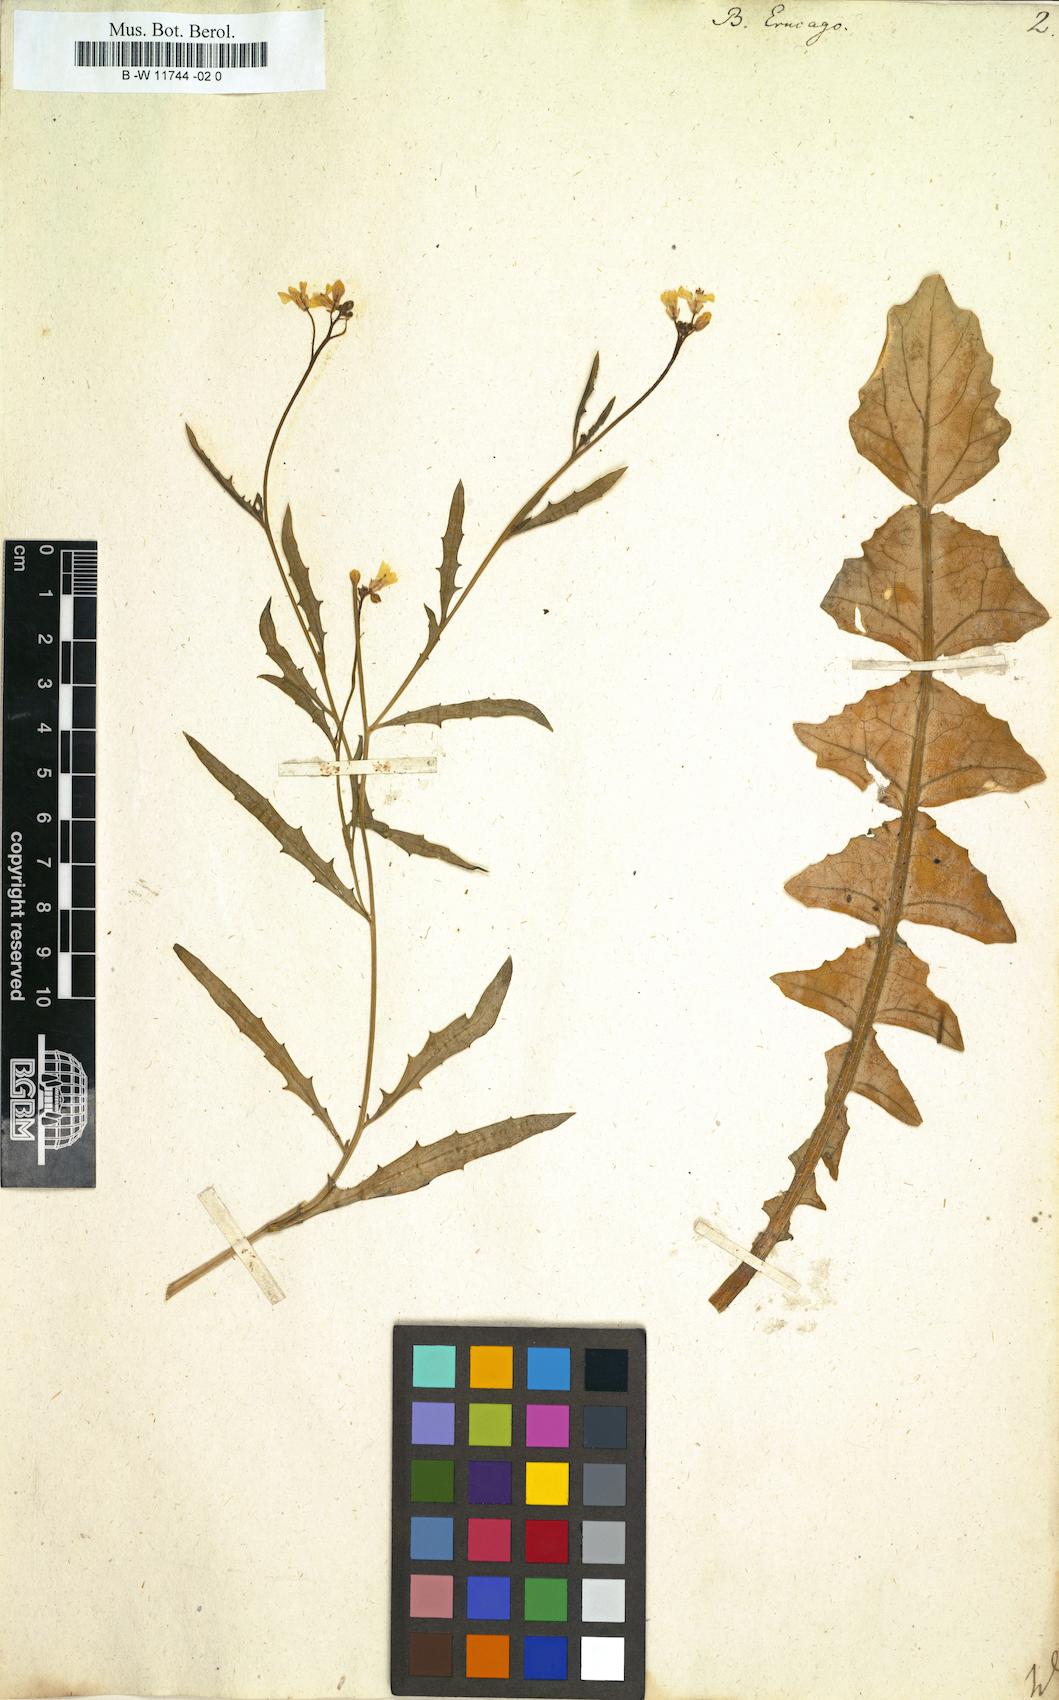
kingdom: Plantae
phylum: Tracheophyta
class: Magnoliopsida
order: Brassicales
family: Brassicaceae
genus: Bunias
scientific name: Bunias erucago
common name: Southern warty-cabbage
